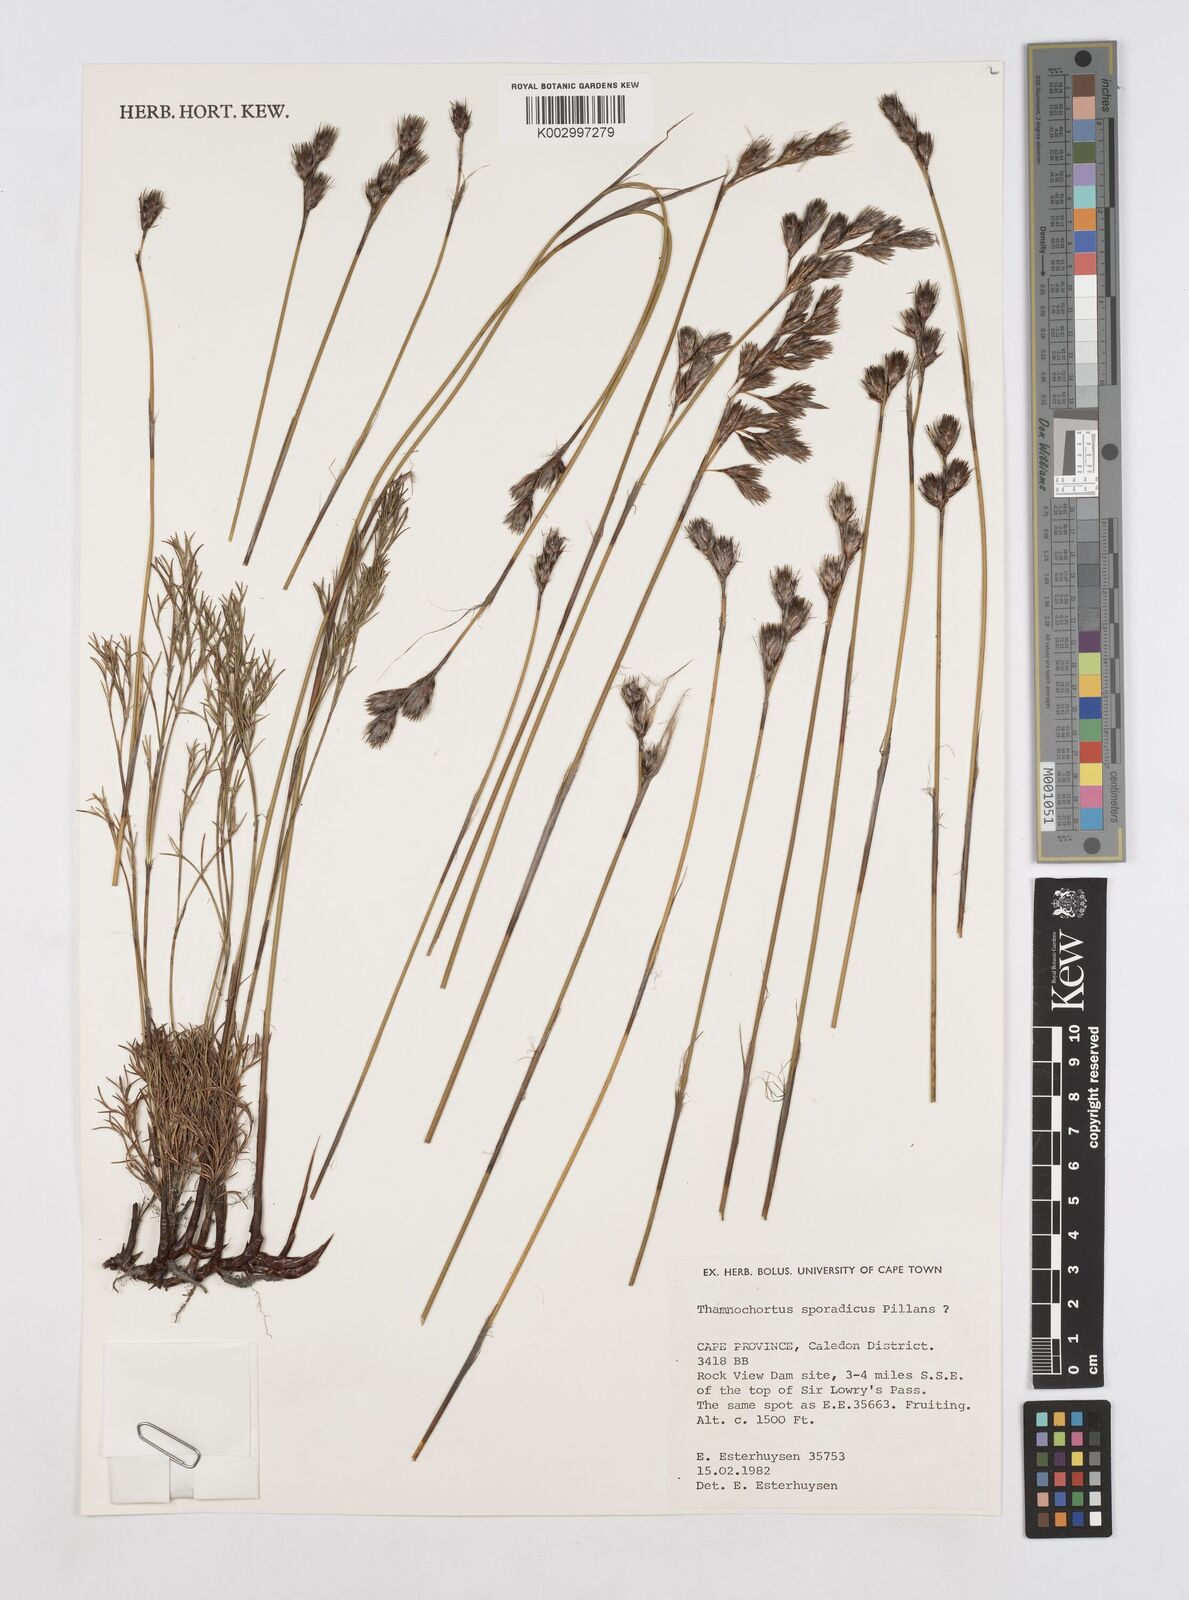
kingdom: Plantae
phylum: Tracheophyta
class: Liliopsida
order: Poales
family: Restionaceae
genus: Thamnochortus
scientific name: Thamnochortus sporadicus
